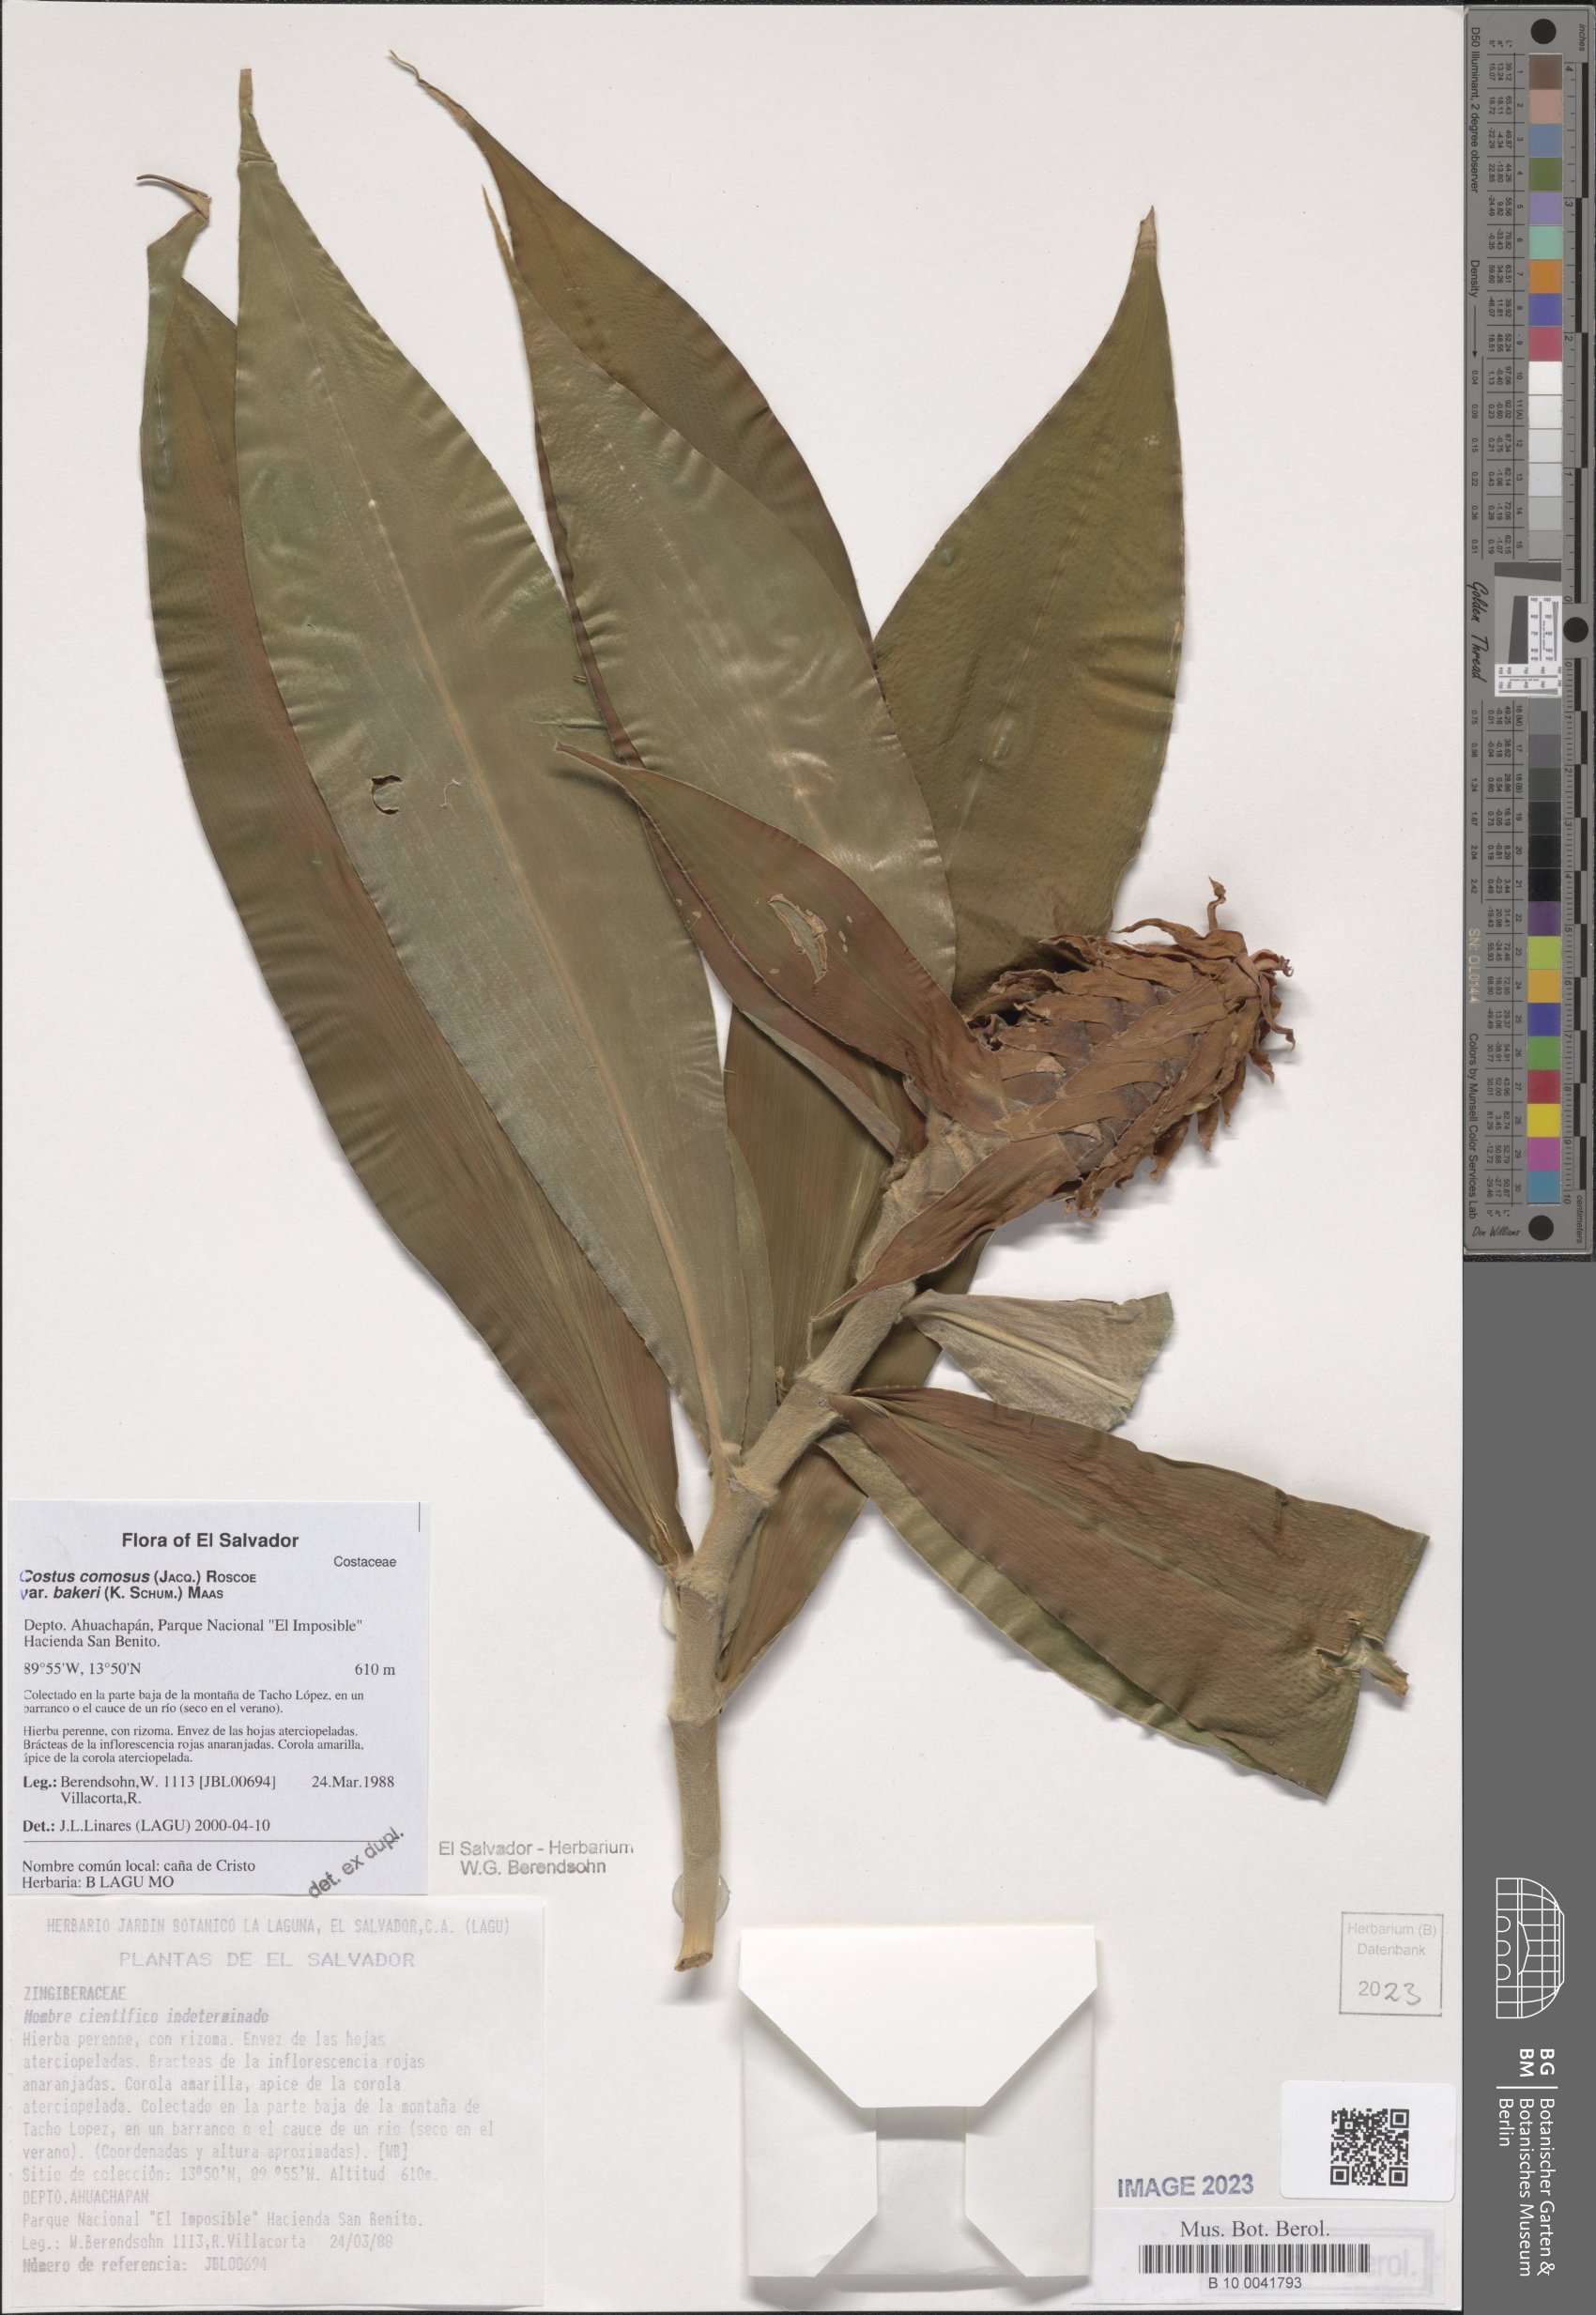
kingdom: Plantae
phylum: Tracheophyta
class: Liliopsida
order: Zingiberales
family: Costaceae
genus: Costus
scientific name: Costus comosus
